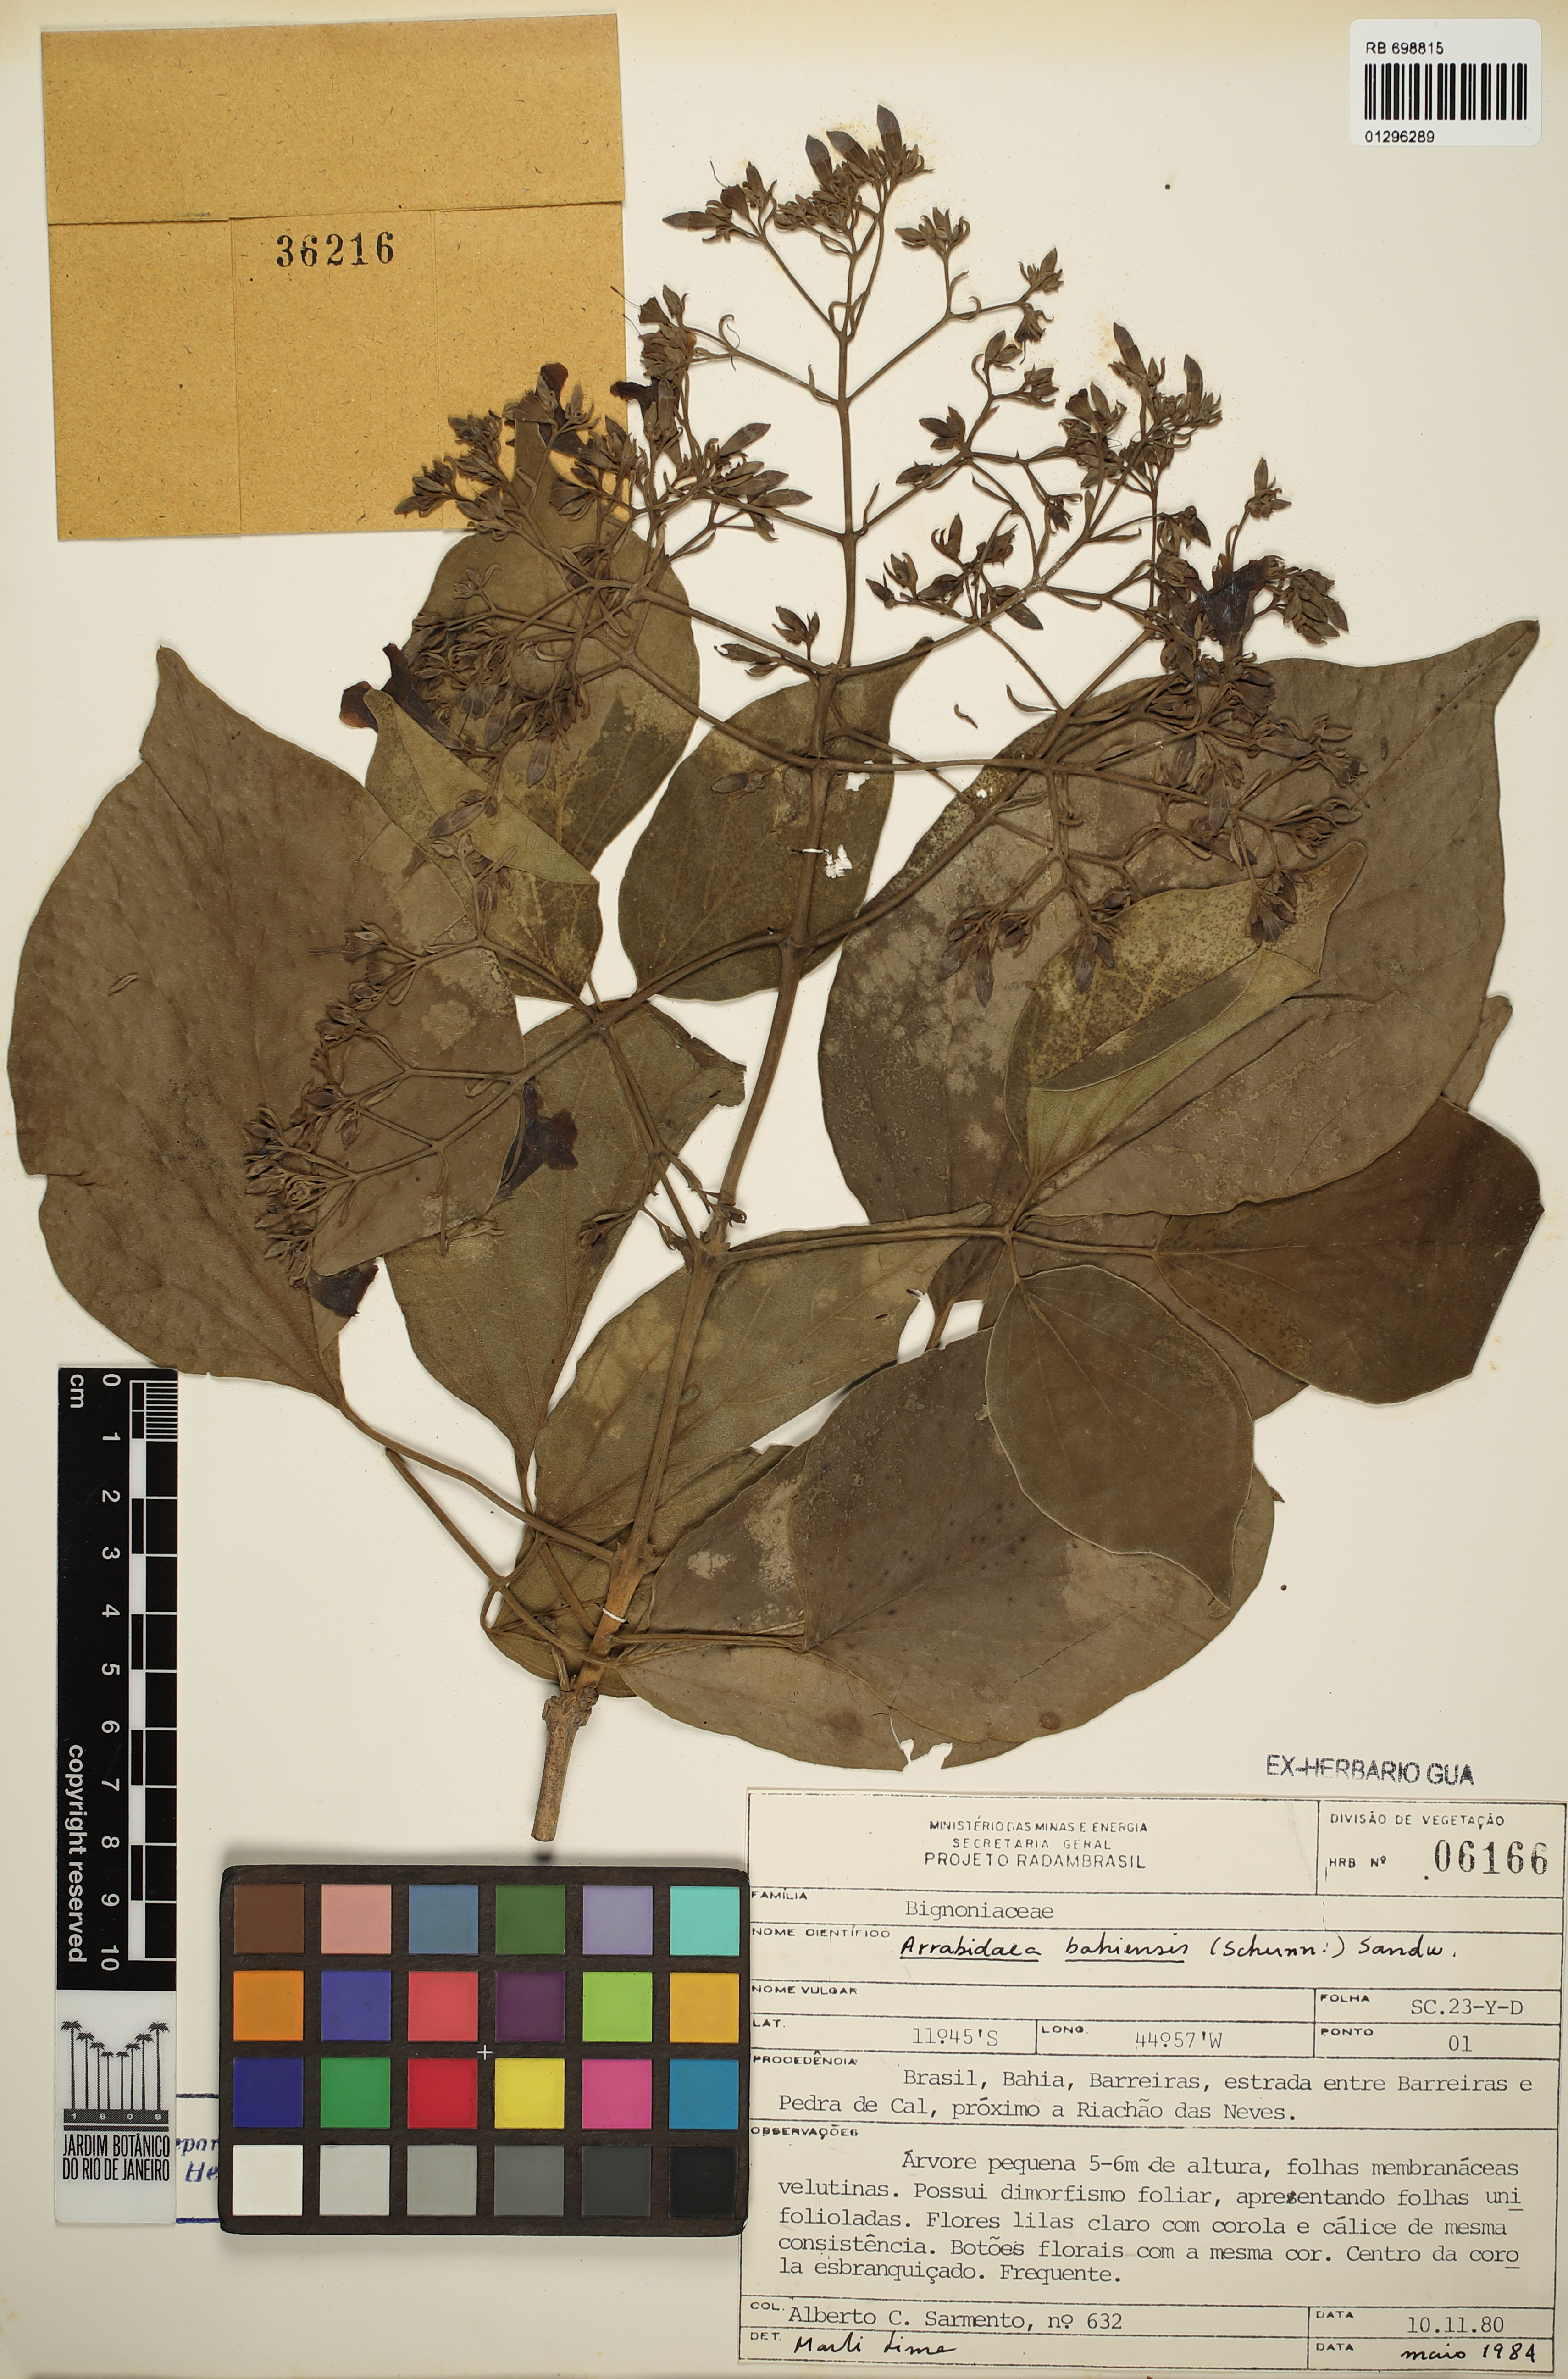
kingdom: Plantae
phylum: Tracheophyta
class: Magnoliopsida
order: Lamiales
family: Bignoniaceae
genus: Fridericia
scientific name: Fridericia bahiensis
